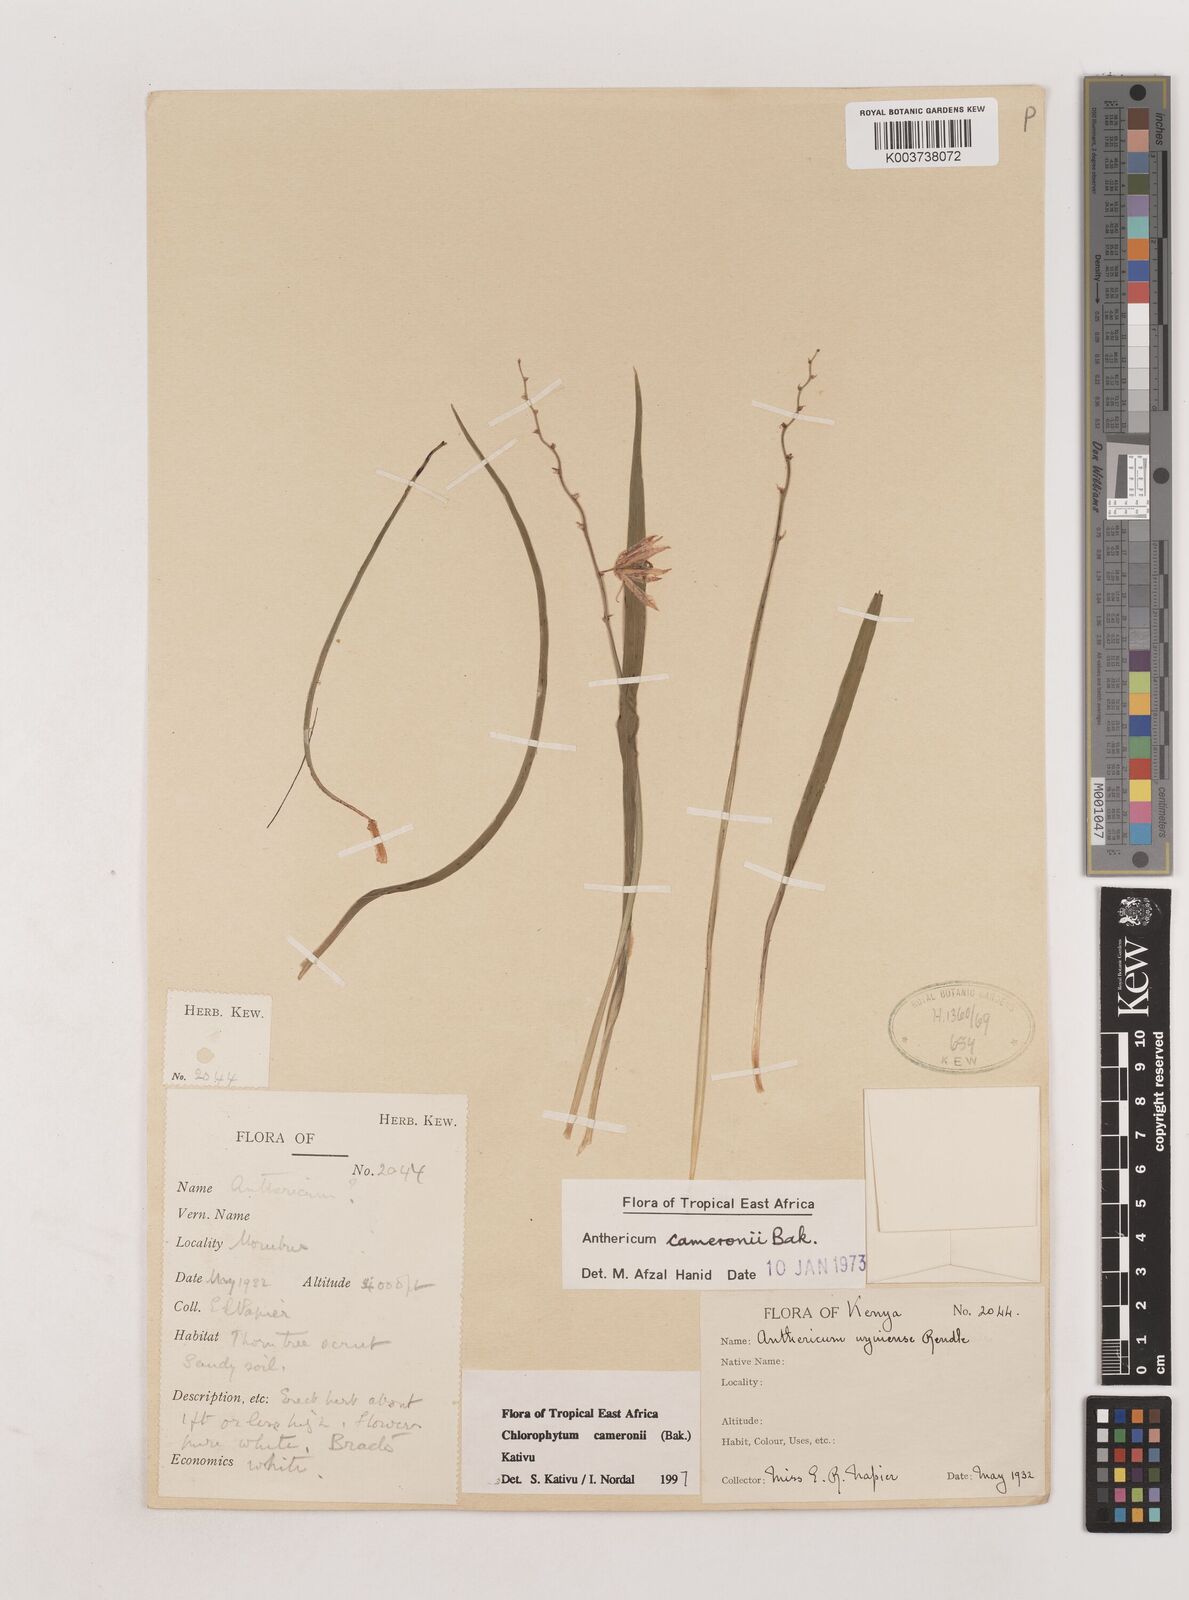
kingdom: Plantae
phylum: Tracheophyta
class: Liliopsida
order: Asparagales
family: Asparagaceae
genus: Chlorophytum
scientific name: Chlorophytum cameronii
